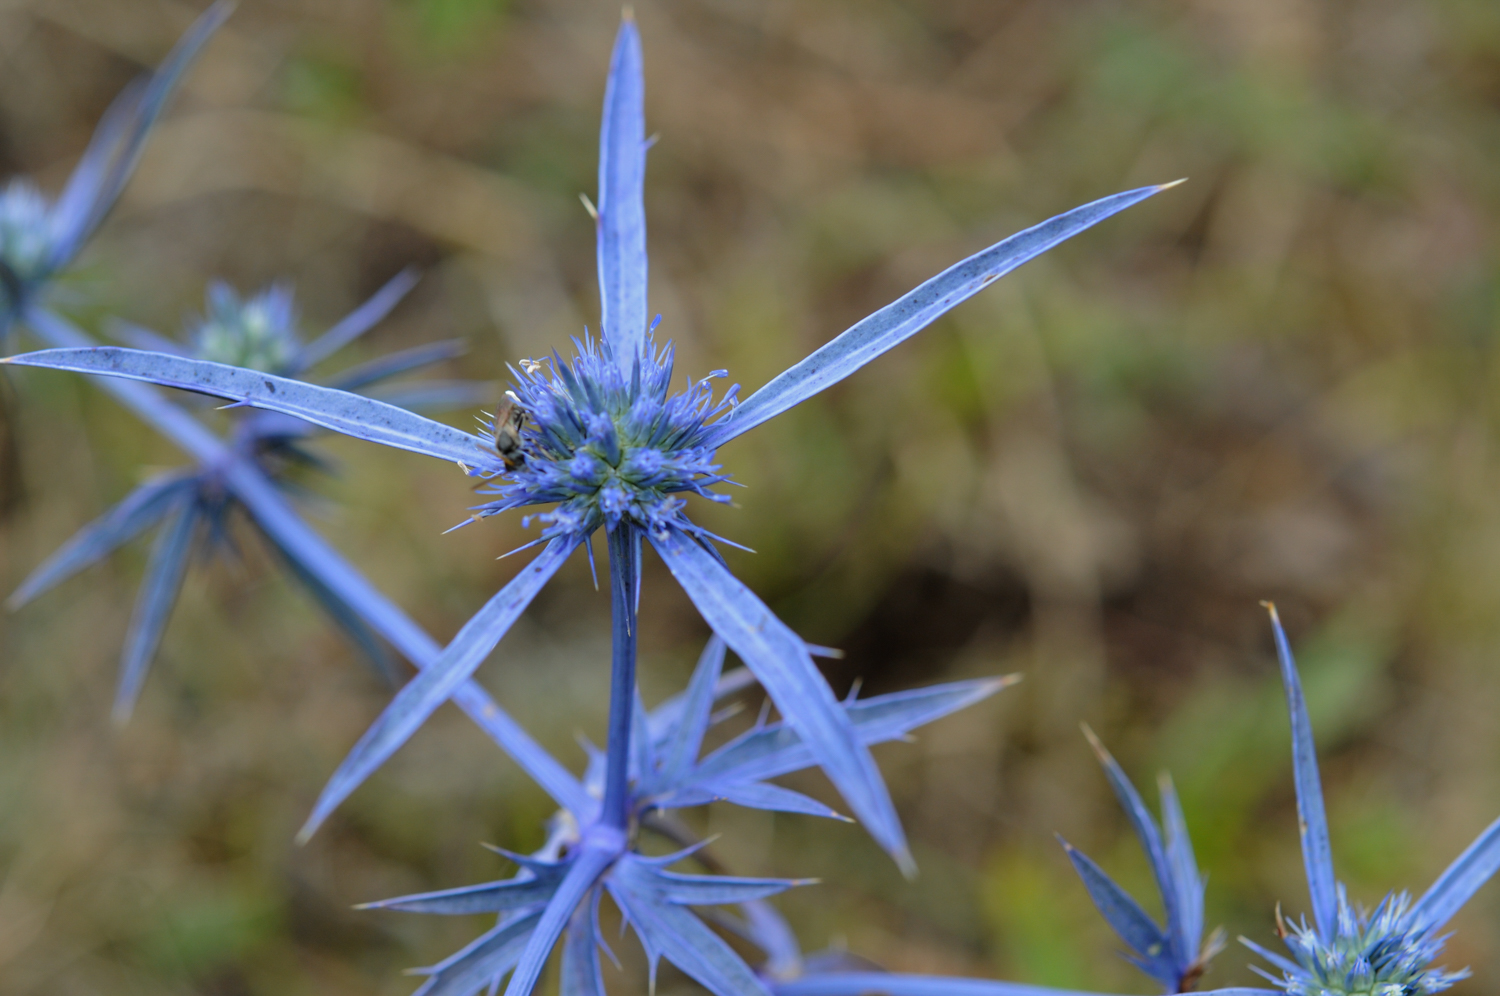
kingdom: Plantae
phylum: Tracheophyta
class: Magnoliopsida
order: Apiales
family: Apiaceae
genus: Eryngium
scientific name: Eryngium planum
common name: Blue eryngo
